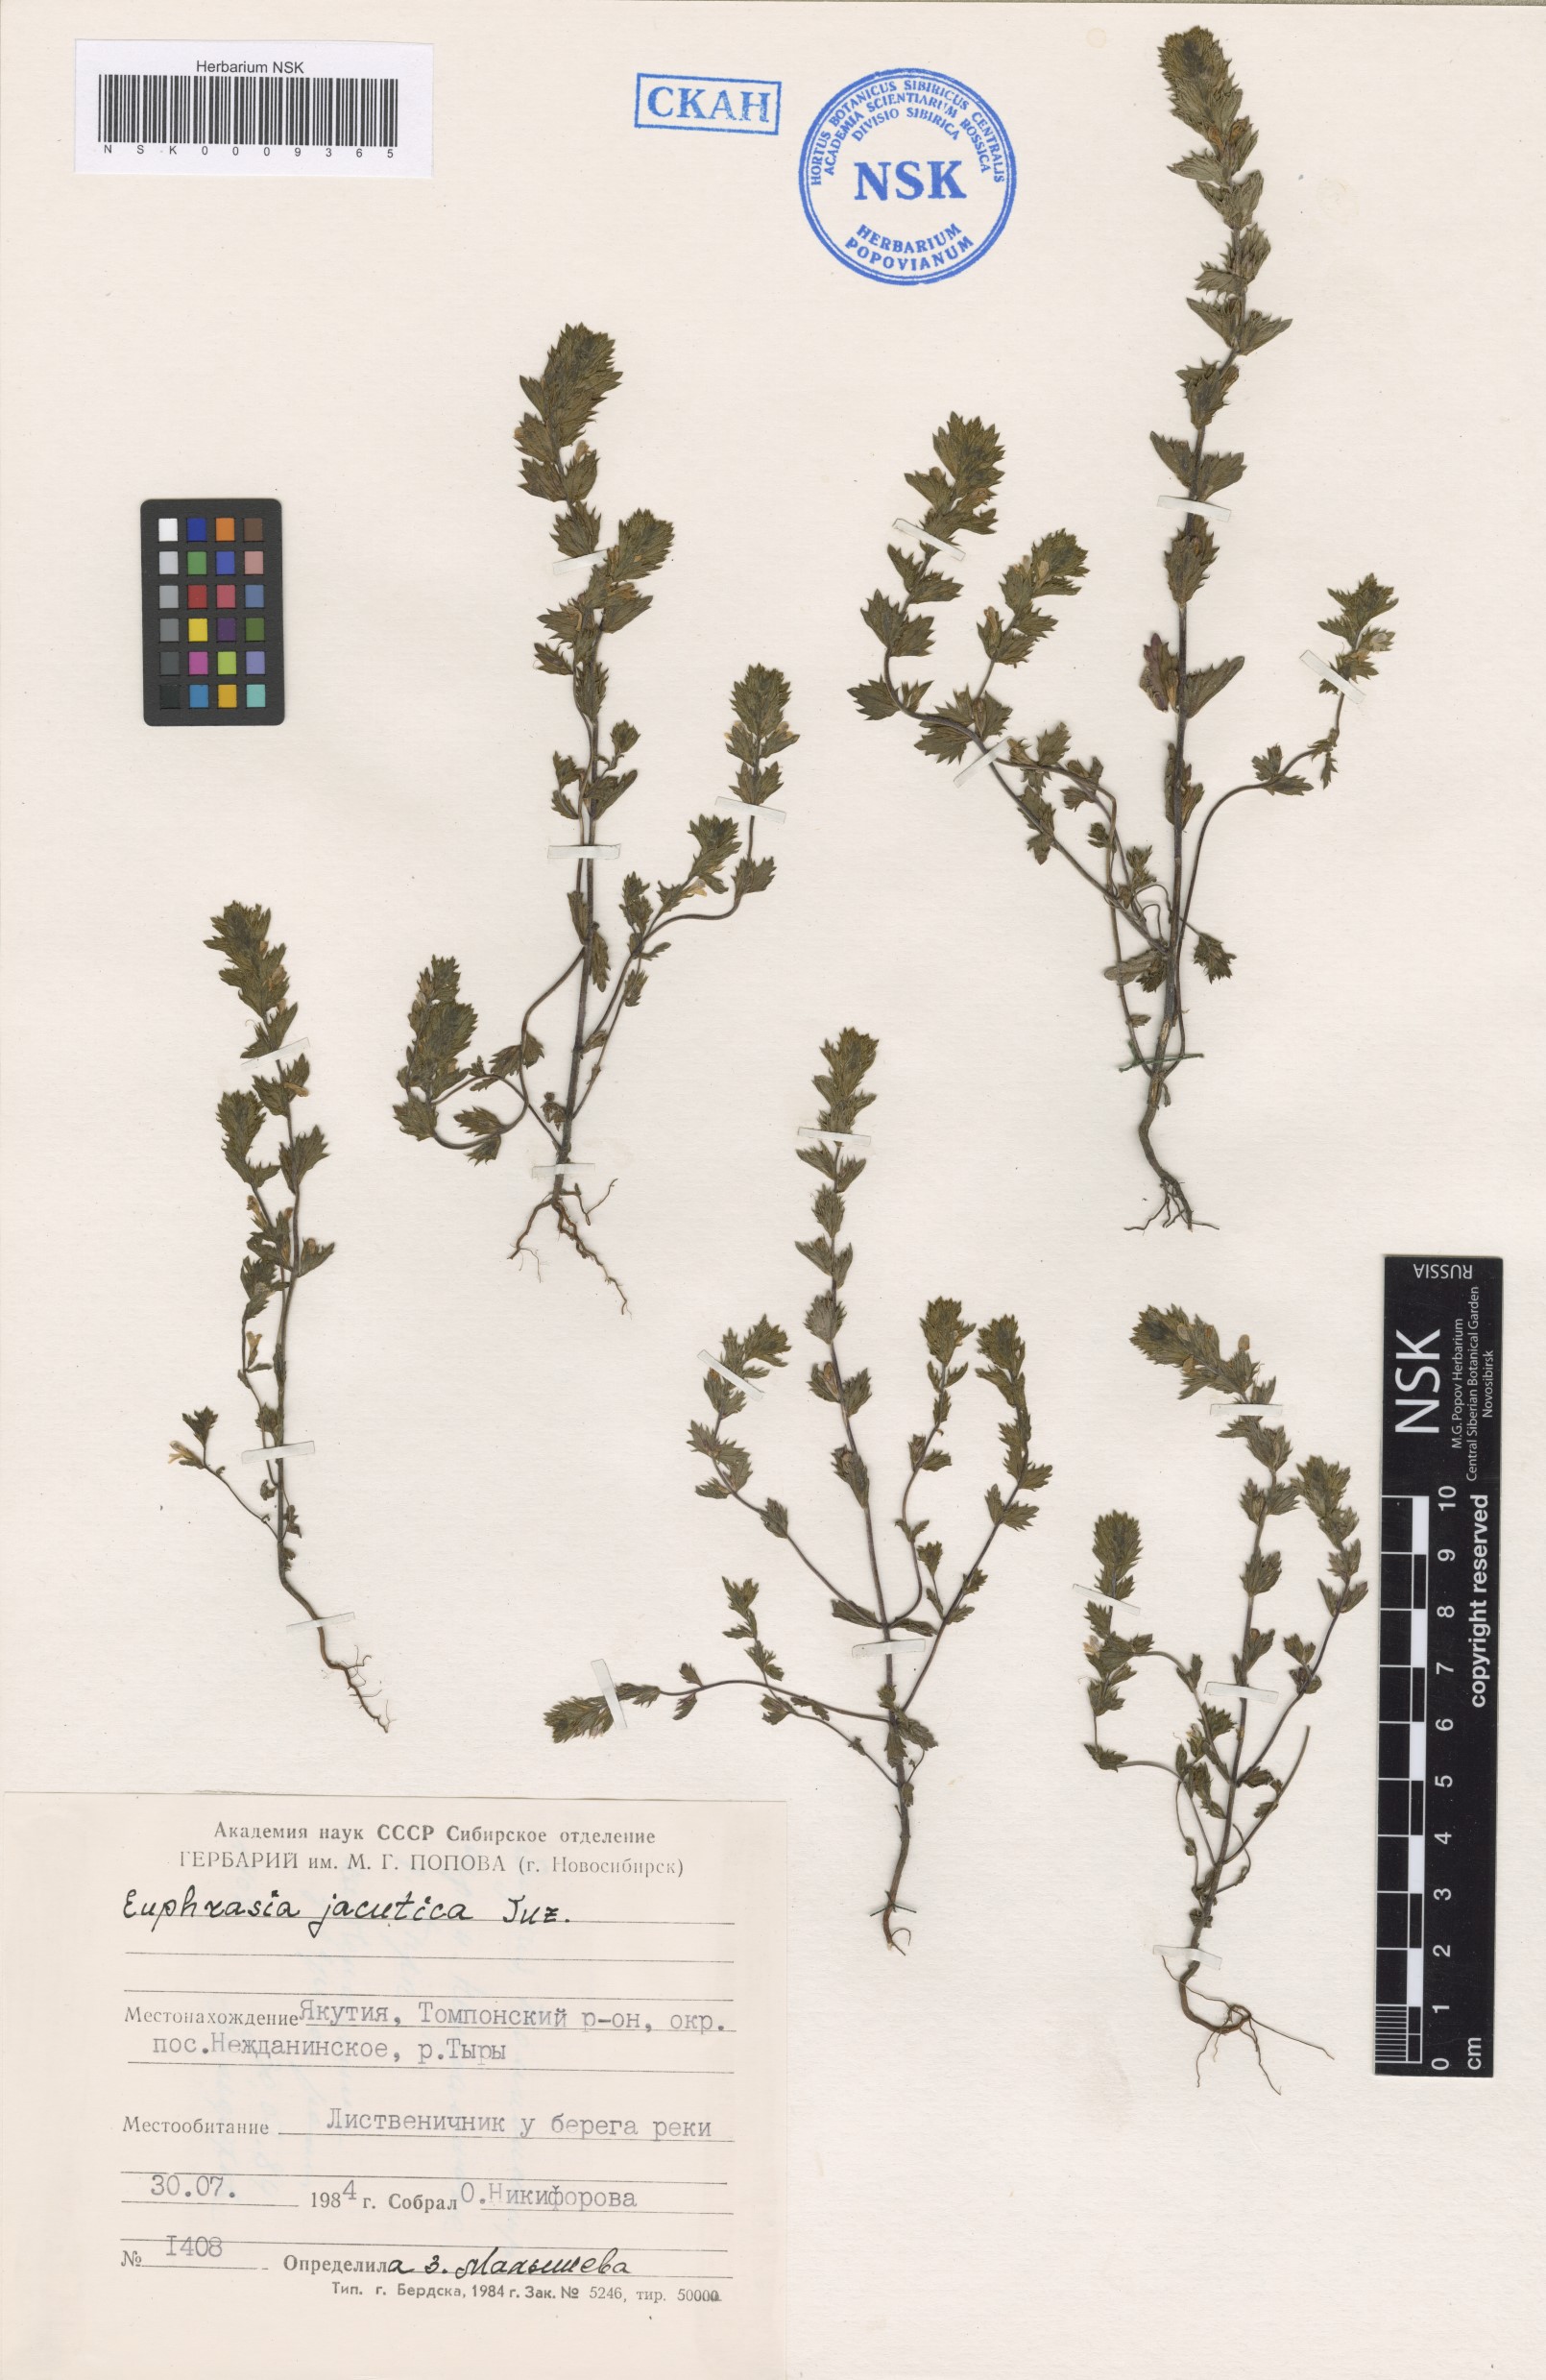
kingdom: Plantae
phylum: Tracheophyta
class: Magnoliopsida
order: Lamiales
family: Orobanchaceae
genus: Euphrasia
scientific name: Euphrasia jacutica
